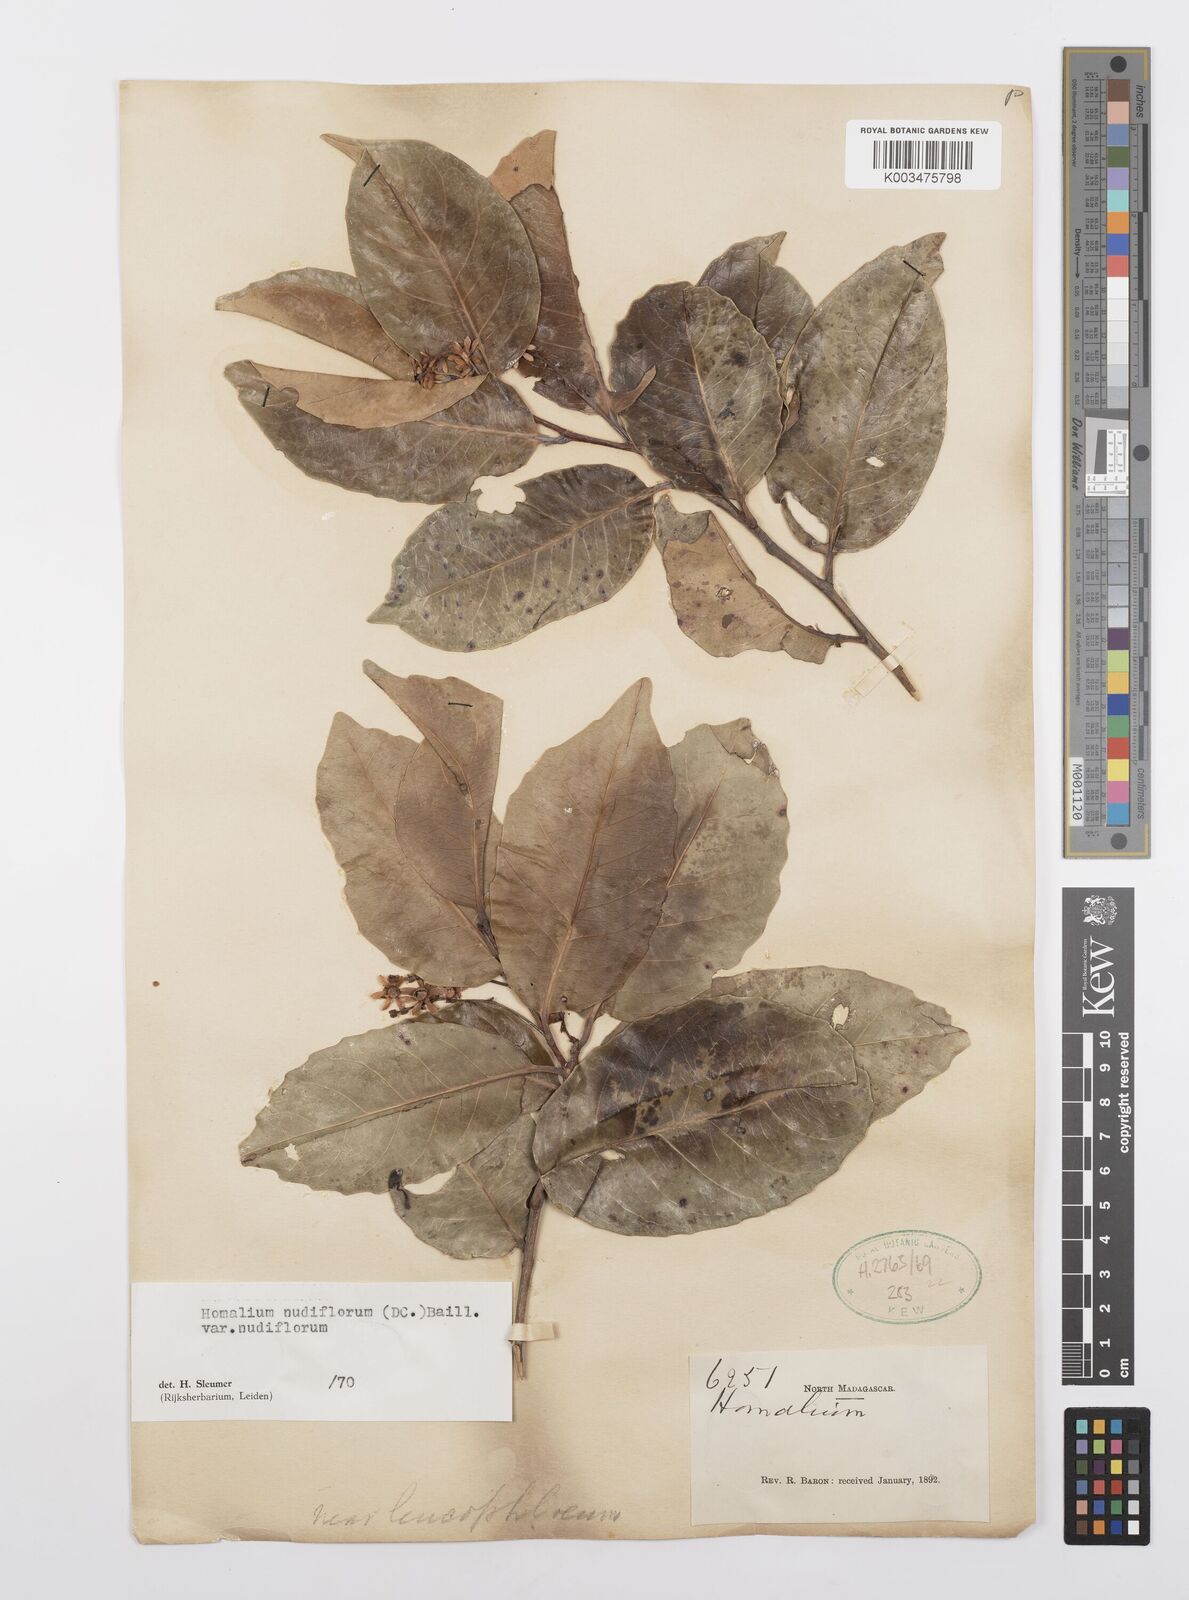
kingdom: Plantae
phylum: Tracheophyta
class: Magnoliopsida
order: Malpighiales
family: Salicaceae
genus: Homalium
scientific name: Homalium nudiflorum
